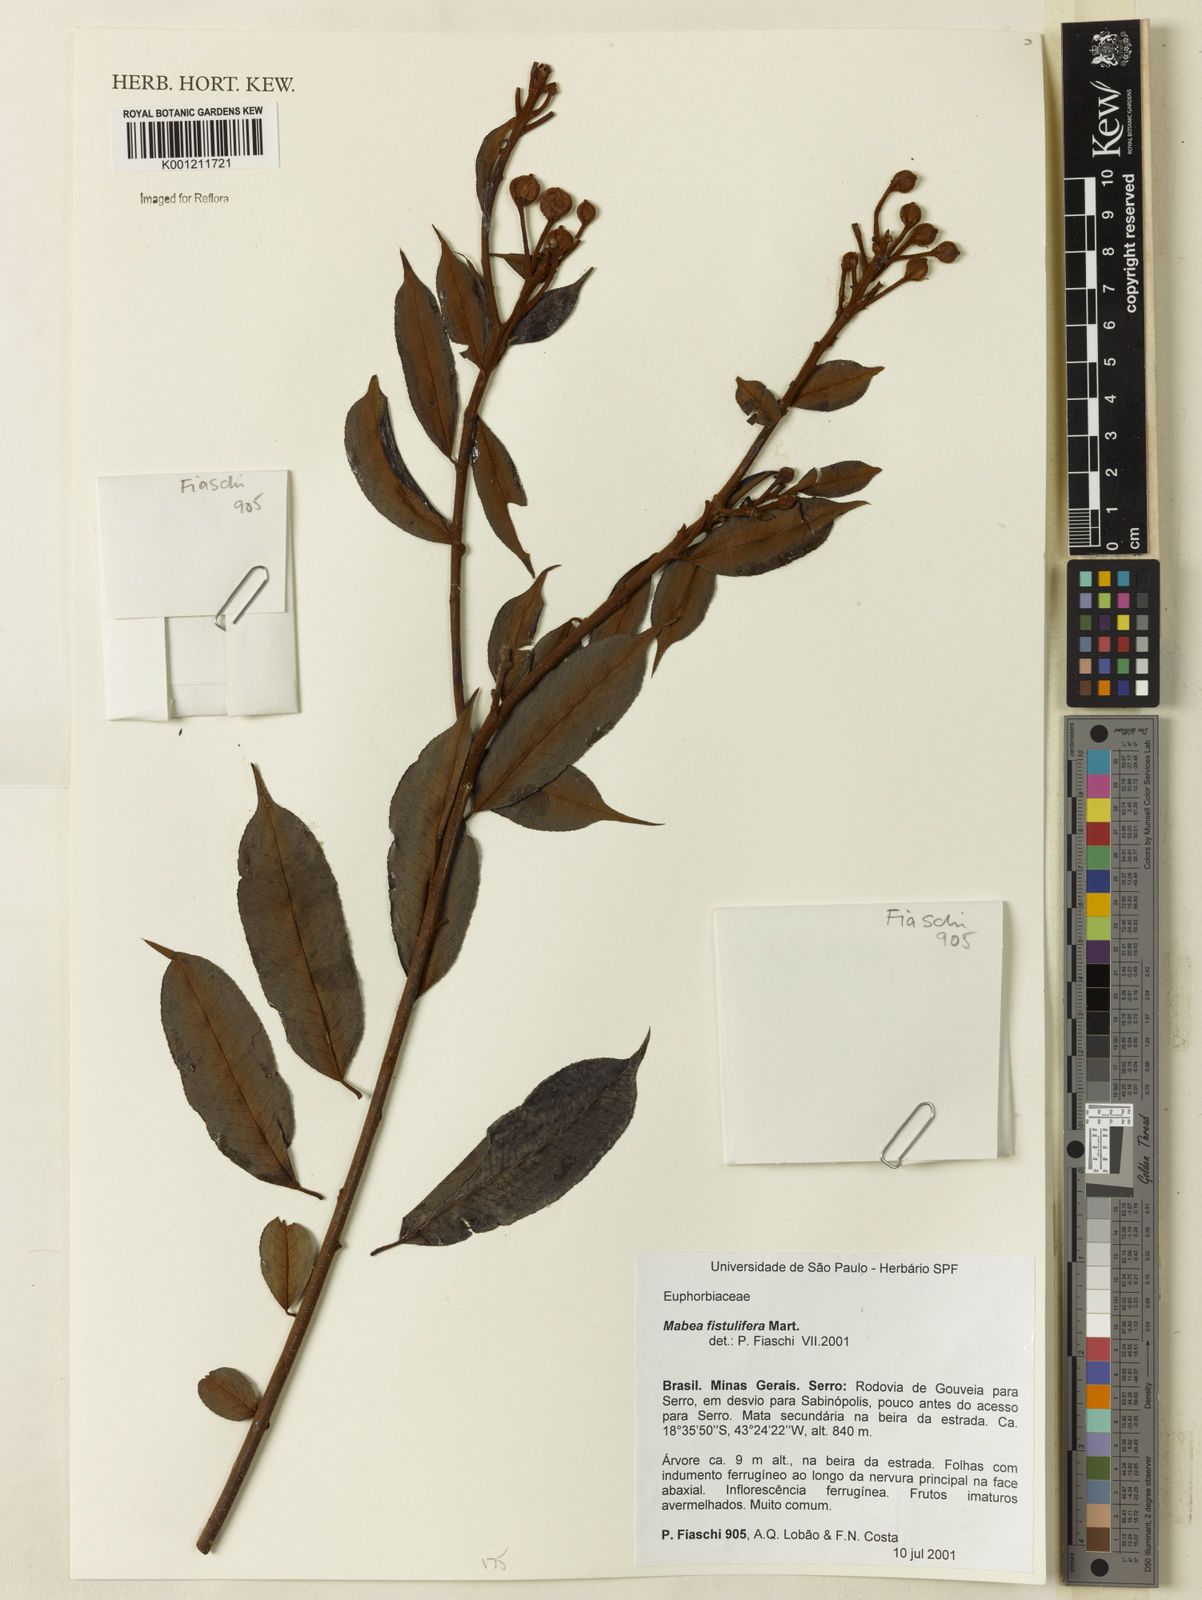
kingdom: Plantae
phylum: Tracheophyta
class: Magnoliopsida
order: Malpighiales
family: Euphorbiaceae
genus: Mabea
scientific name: Mabea fistulifera
